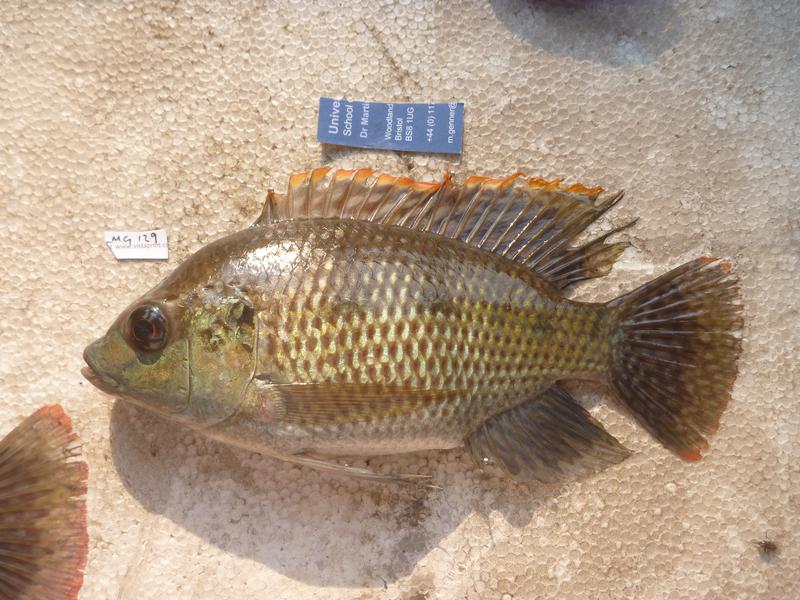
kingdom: Animalia
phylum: Chordata
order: Perciformes
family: Cichlidae
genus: Oreochromis
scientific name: Oreochromis upembae
